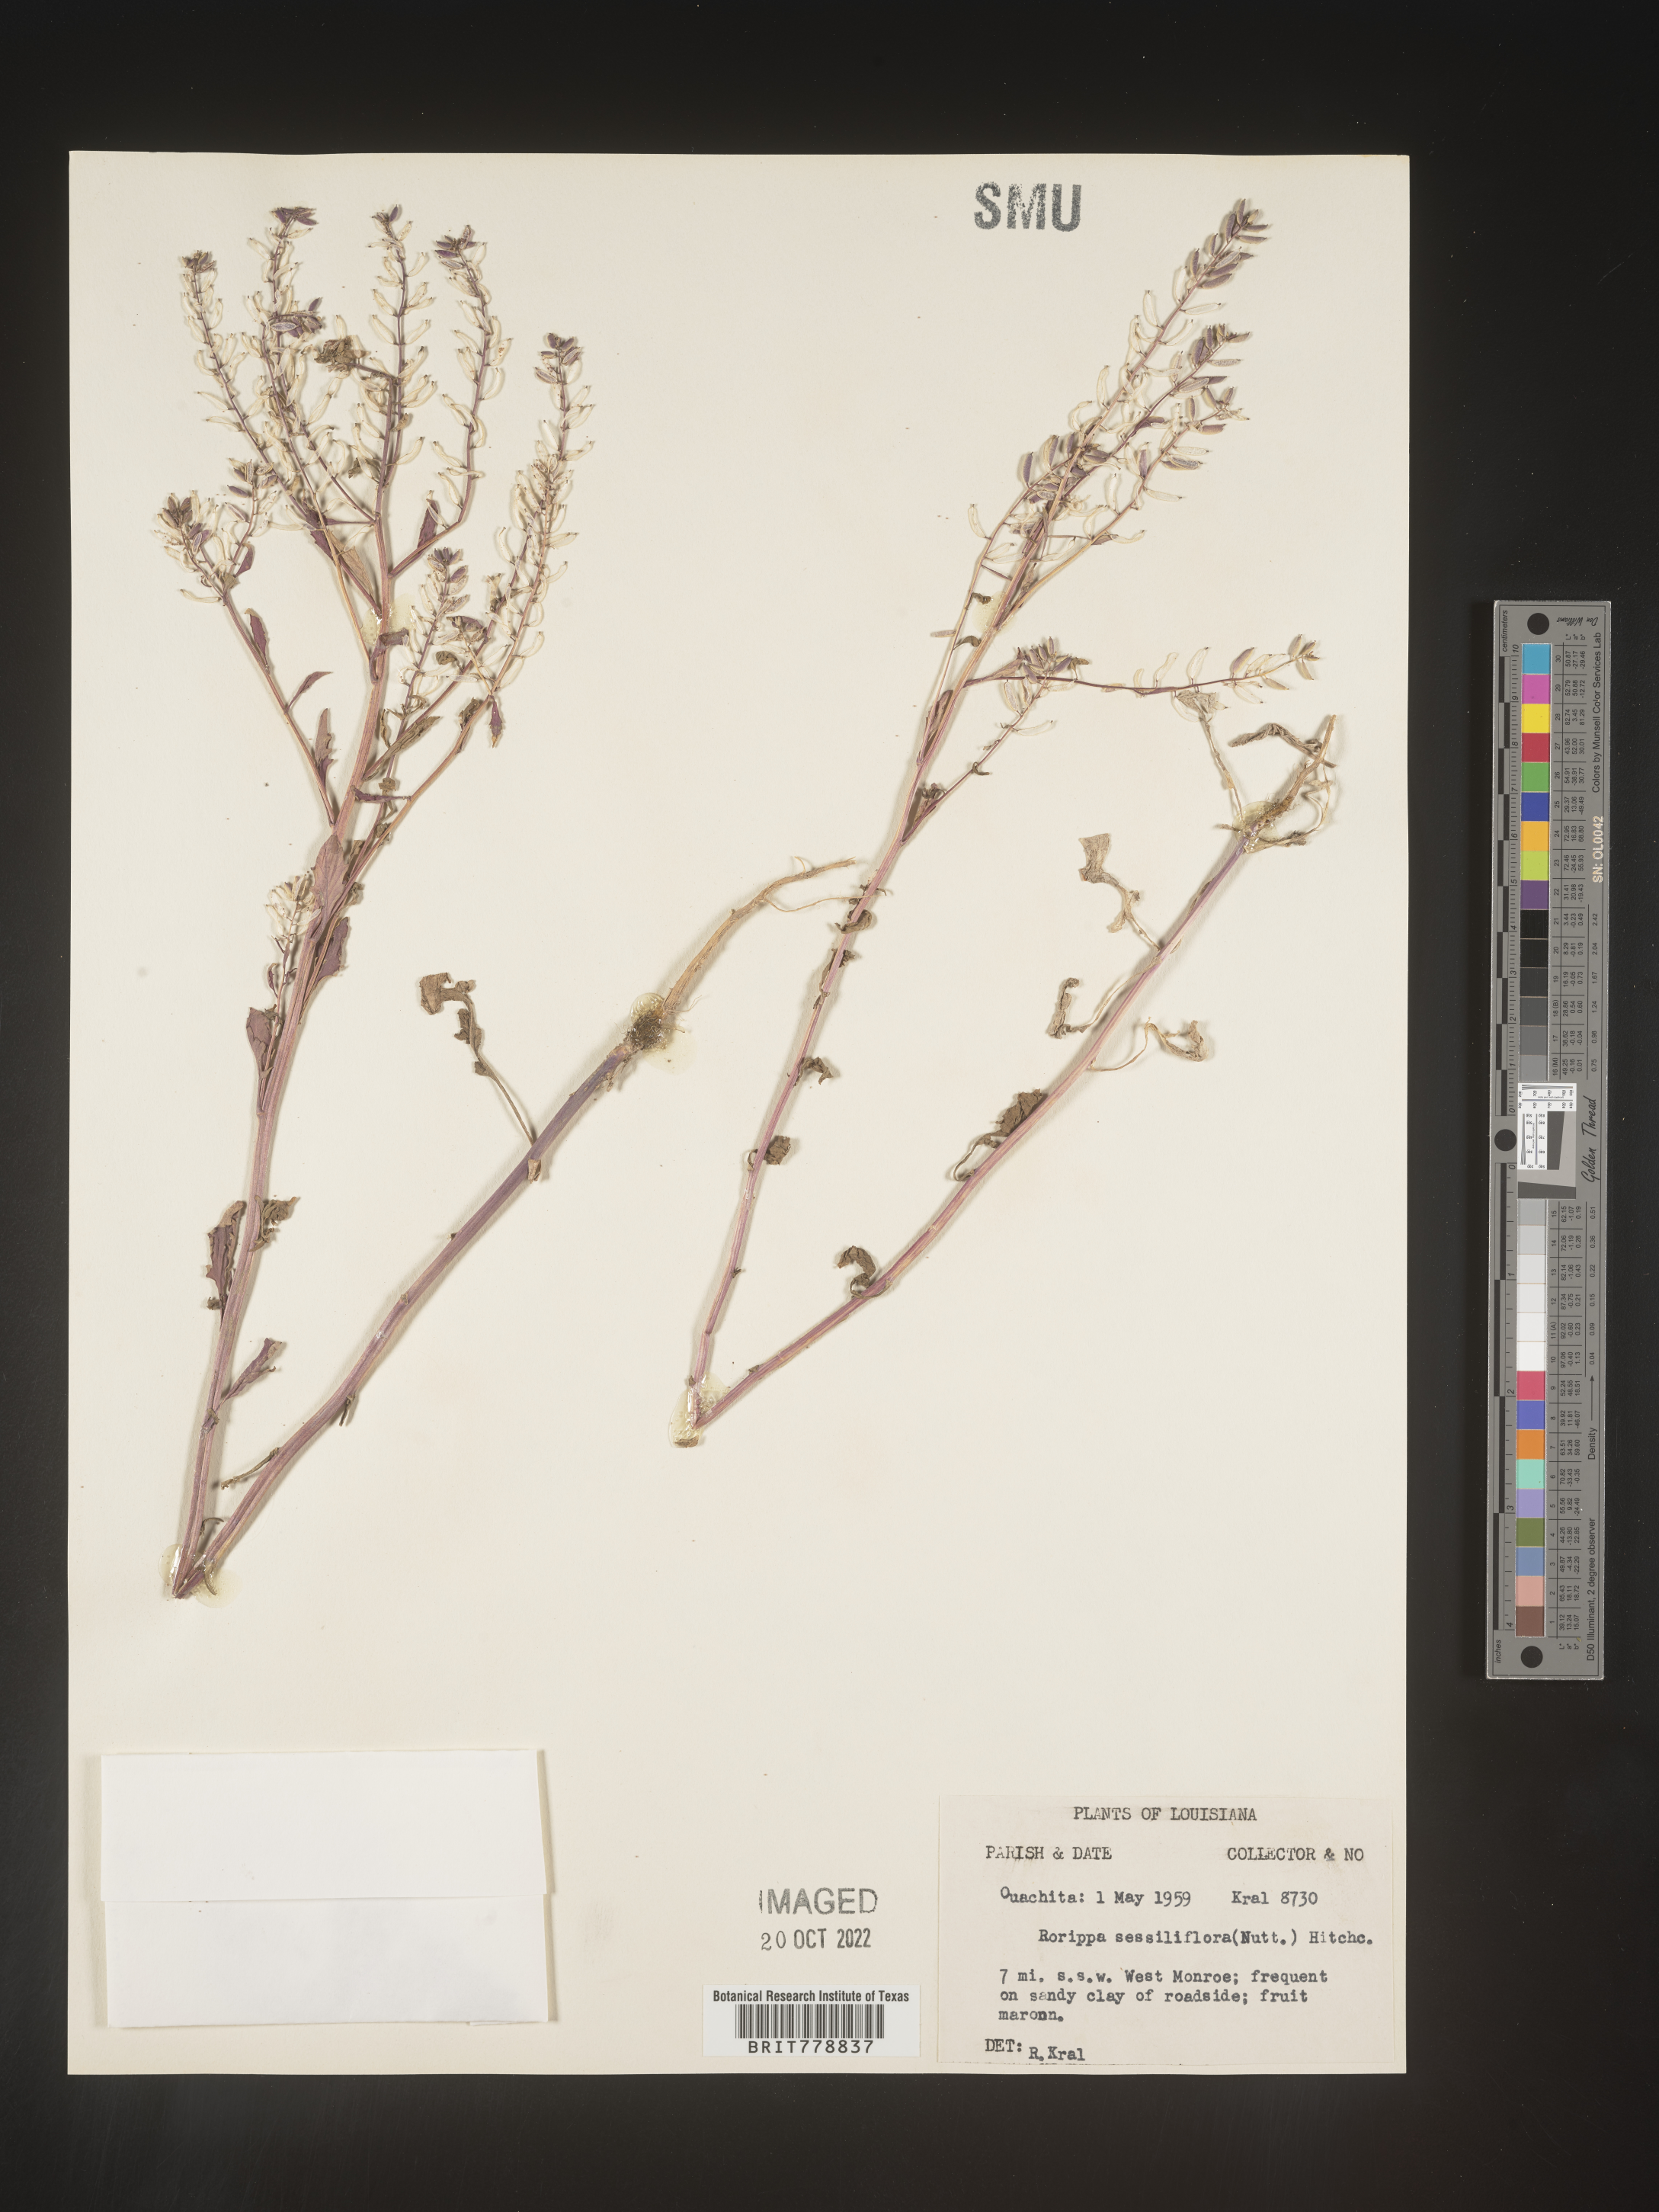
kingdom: Plantae
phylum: Tracheophyta
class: Magnoliopsida
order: Brassicales
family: Brassicaceae
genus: Rorippa
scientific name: Rorippa sessiliflora
